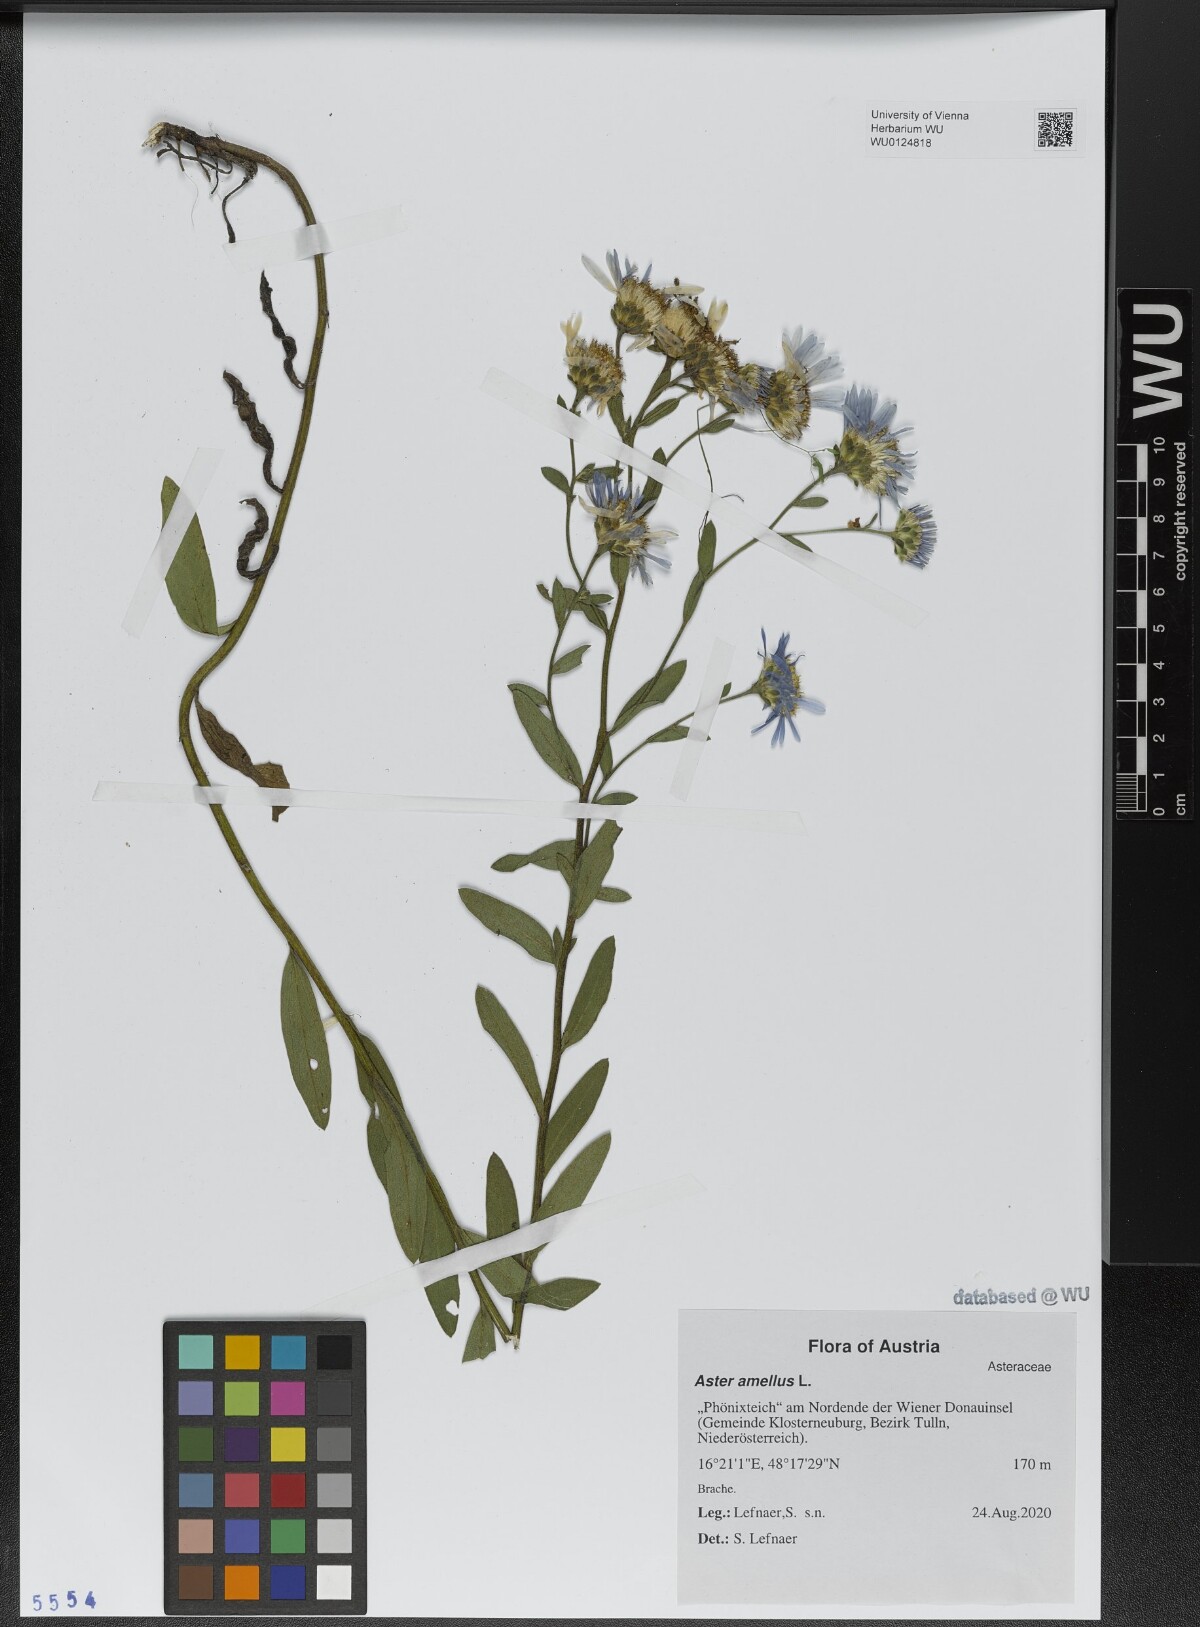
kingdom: Plantae
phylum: Tracheophyta
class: Magnoliopsida
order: Asterales
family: Asteraceae
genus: Aster
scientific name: Aster amellus
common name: European michaelmas daisy
